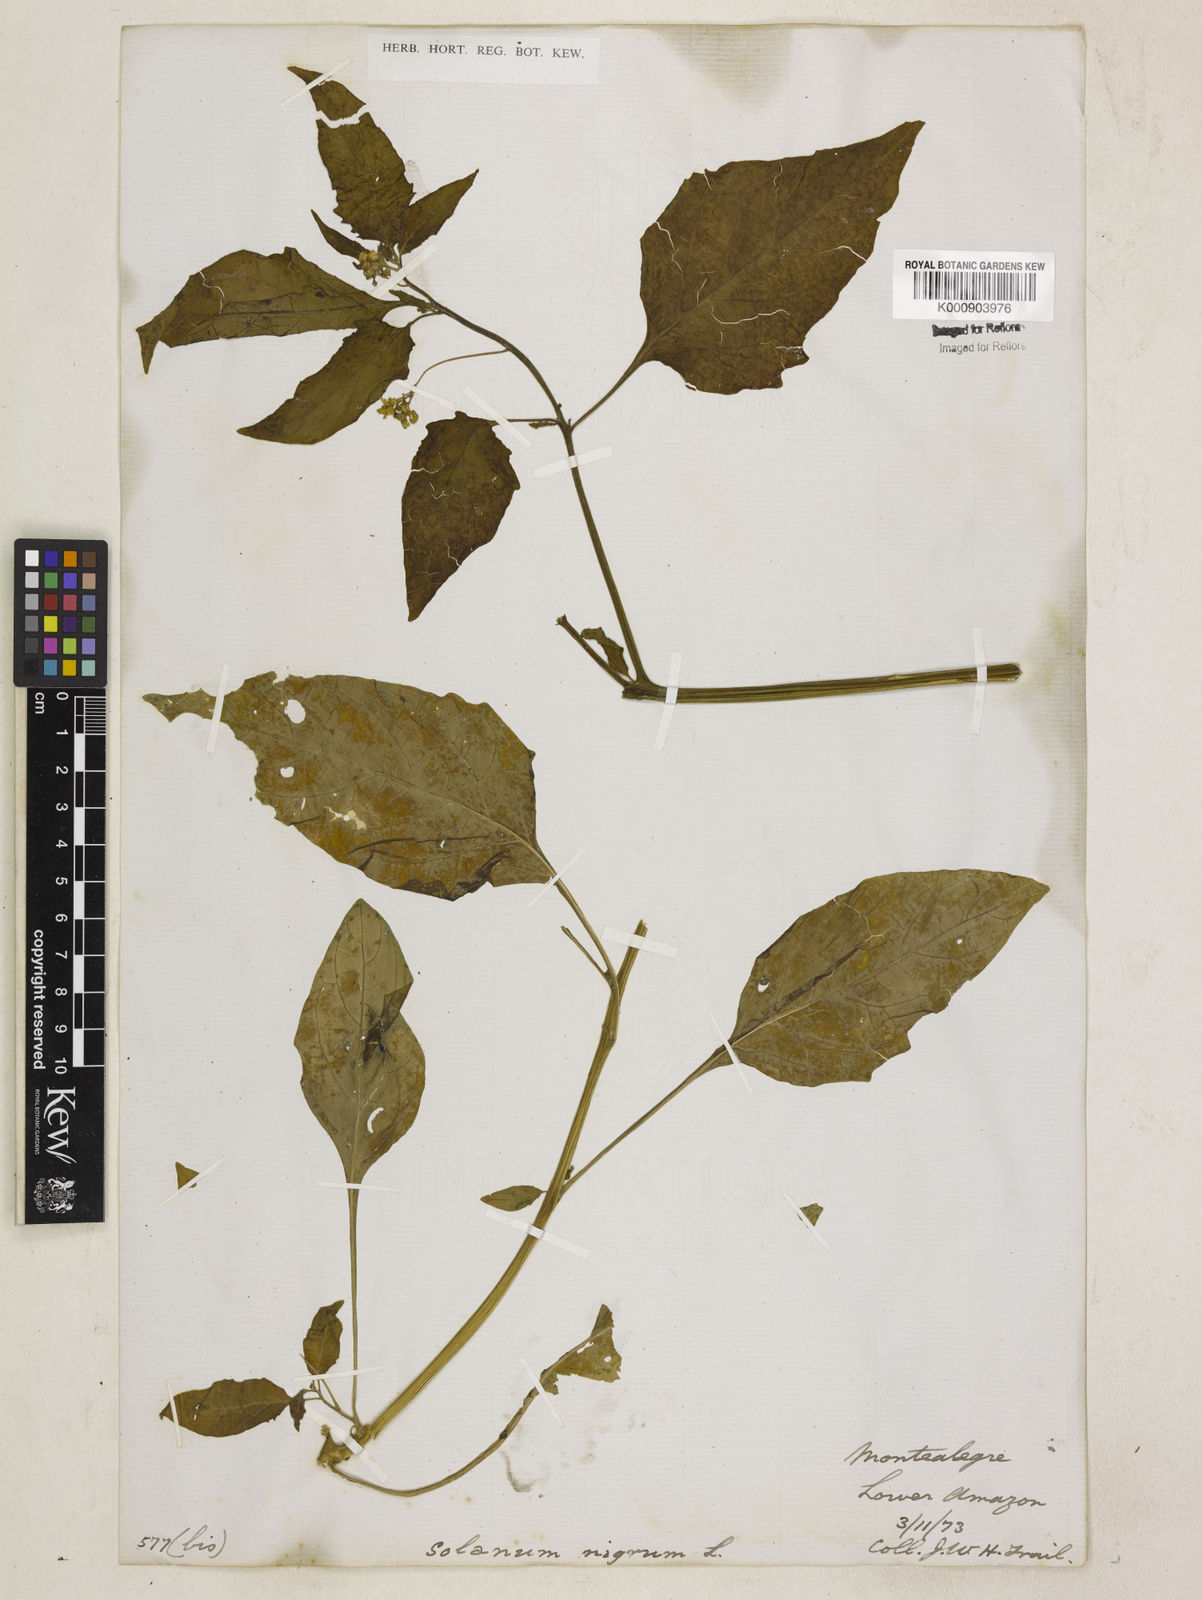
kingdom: Plantae
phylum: Tracheophyta
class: Magnoliopsida
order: Solanales
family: Solanaceae
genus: Solanum
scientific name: Solanum nigrum
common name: Black nightshade
